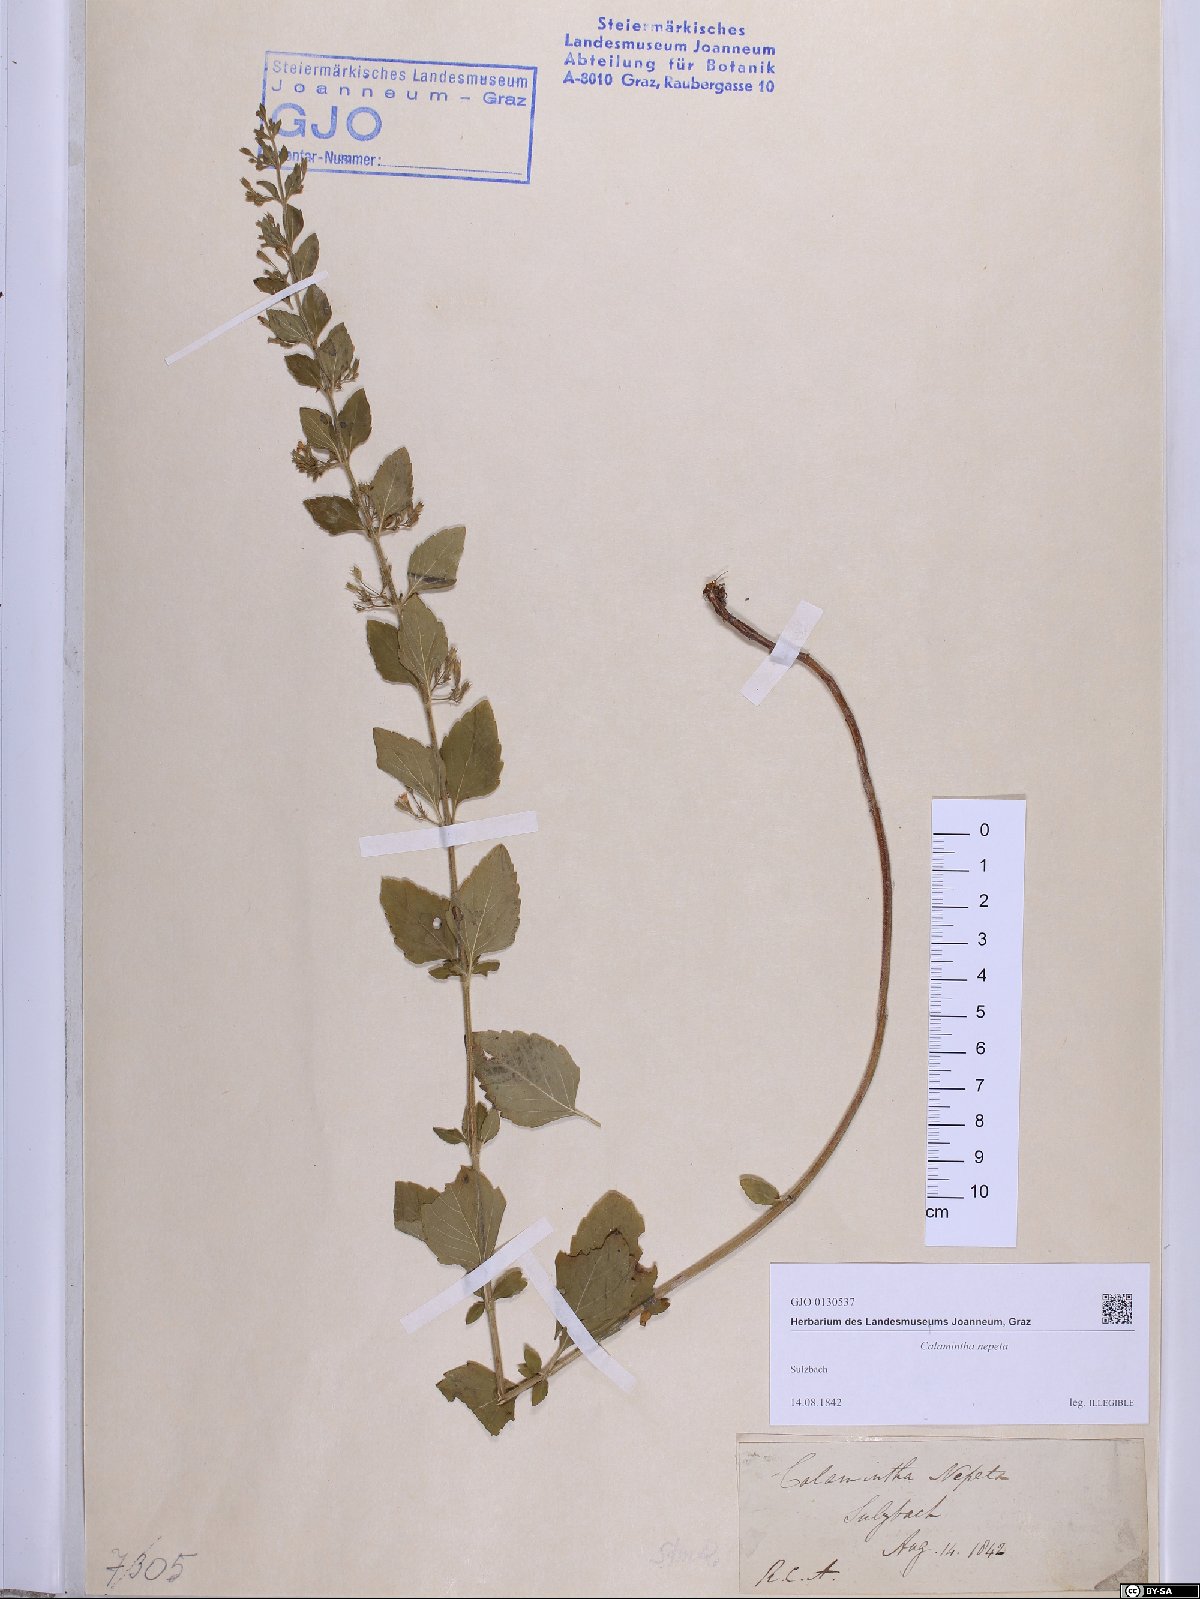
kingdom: Plantae
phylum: Tracheophyta
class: Magnoliopsida
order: Lamiales
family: Lamiaceae
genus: Clinopodium
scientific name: Clinopodium nepeta
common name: Lesser calamint
